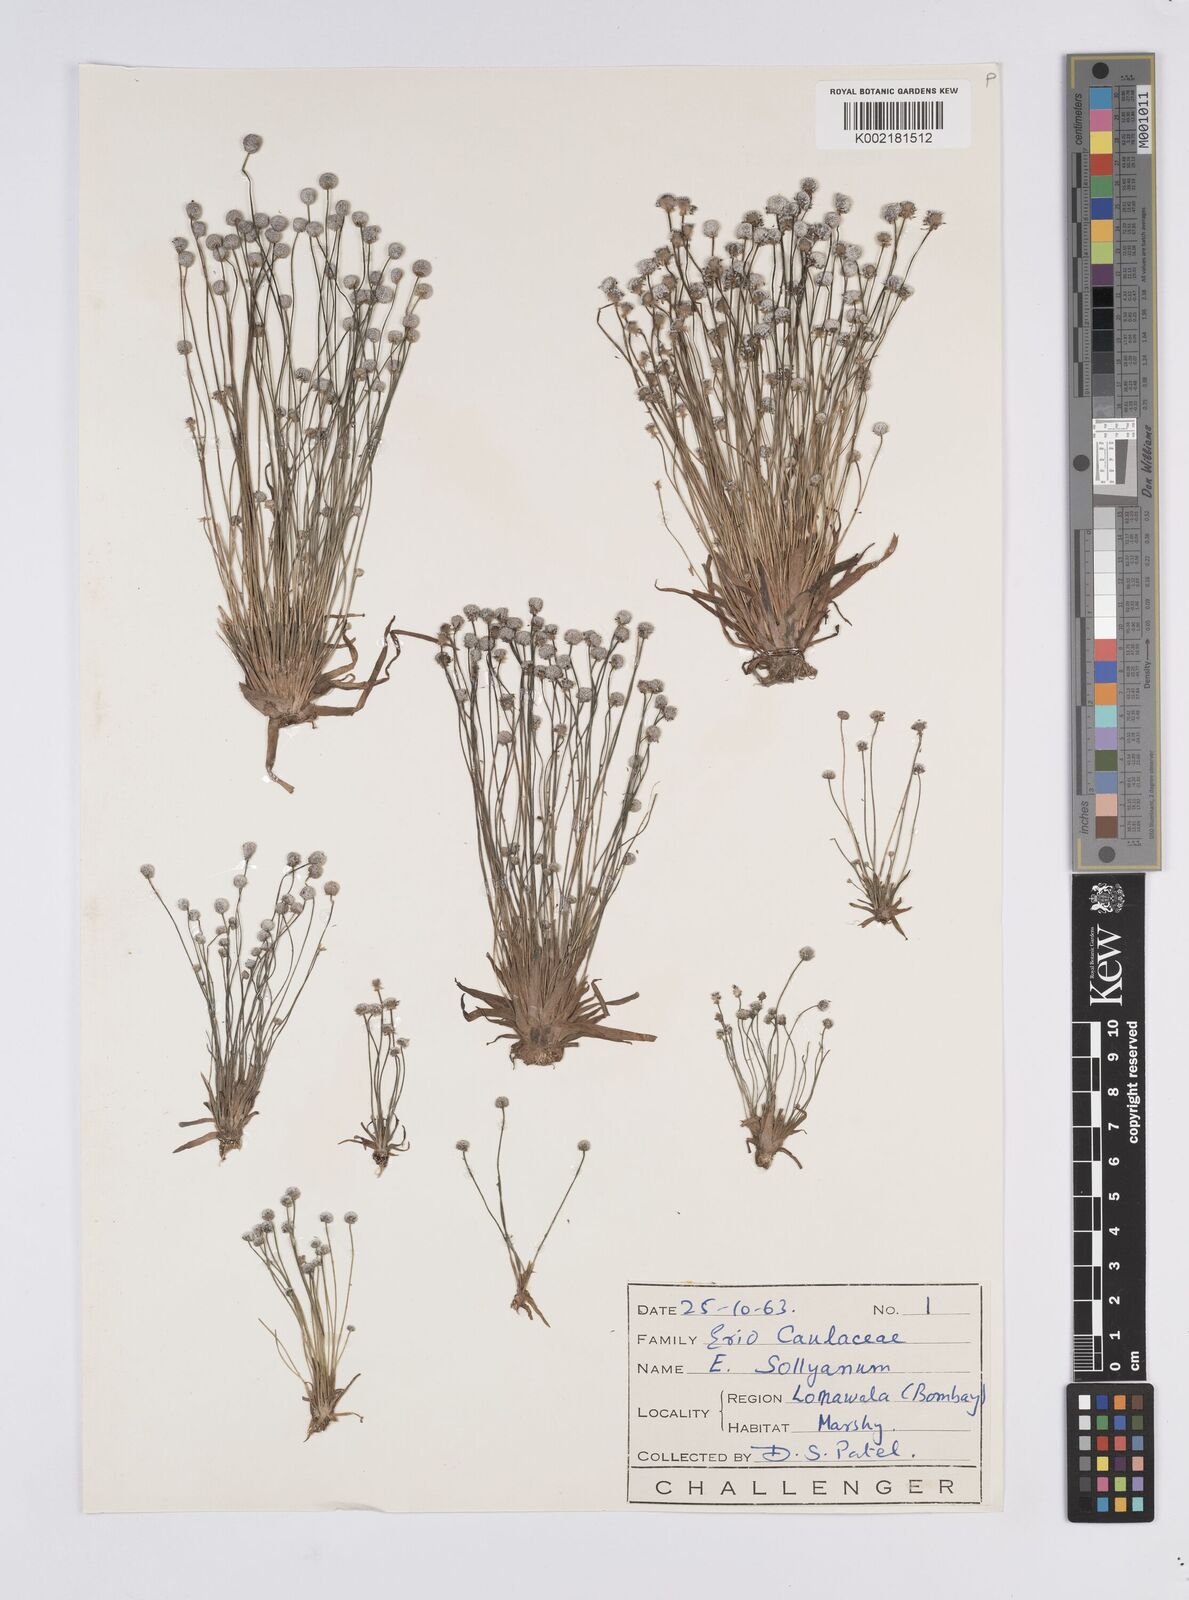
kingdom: Plantae
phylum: Tracheophyta
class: Liliopsida
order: Poales
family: Eriocaulaceae
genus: Eriocaulon
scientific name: Eriocaulon sollyanum
